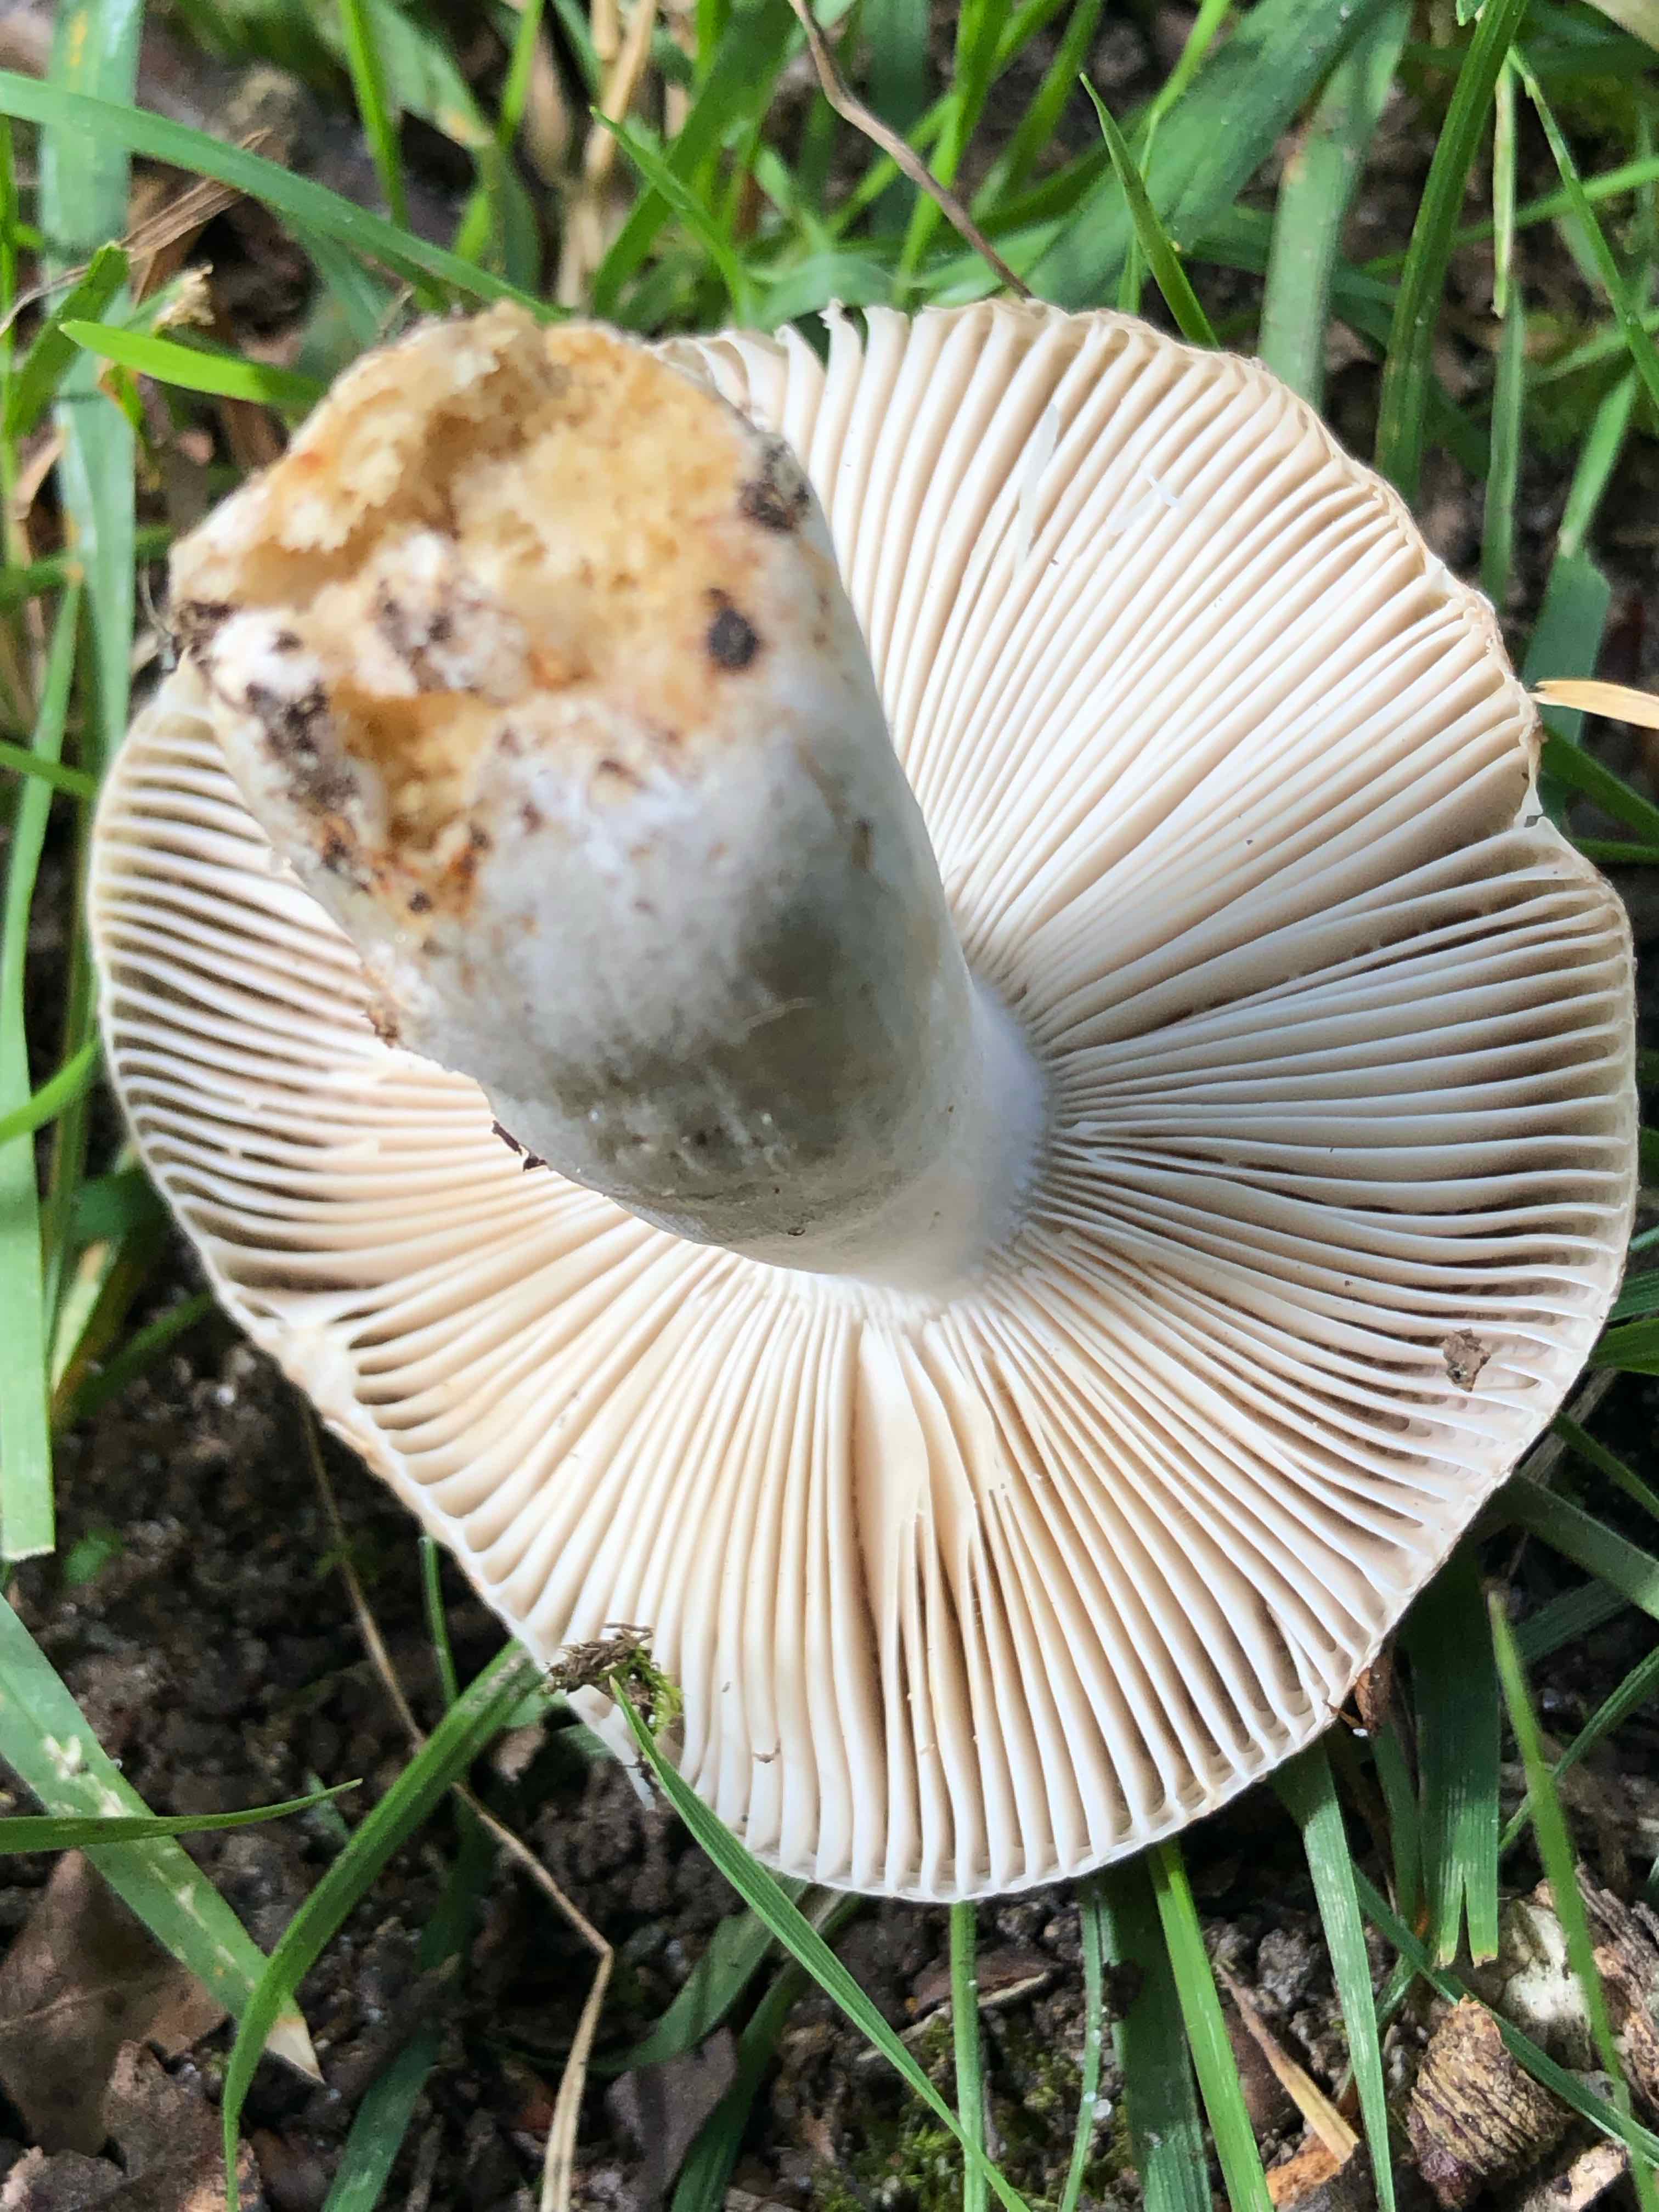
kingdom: Fungi
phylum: Basidiomycota
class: Agaricomycetes
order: Russulales
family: Russulaceae
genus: Russula
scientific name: Russula
